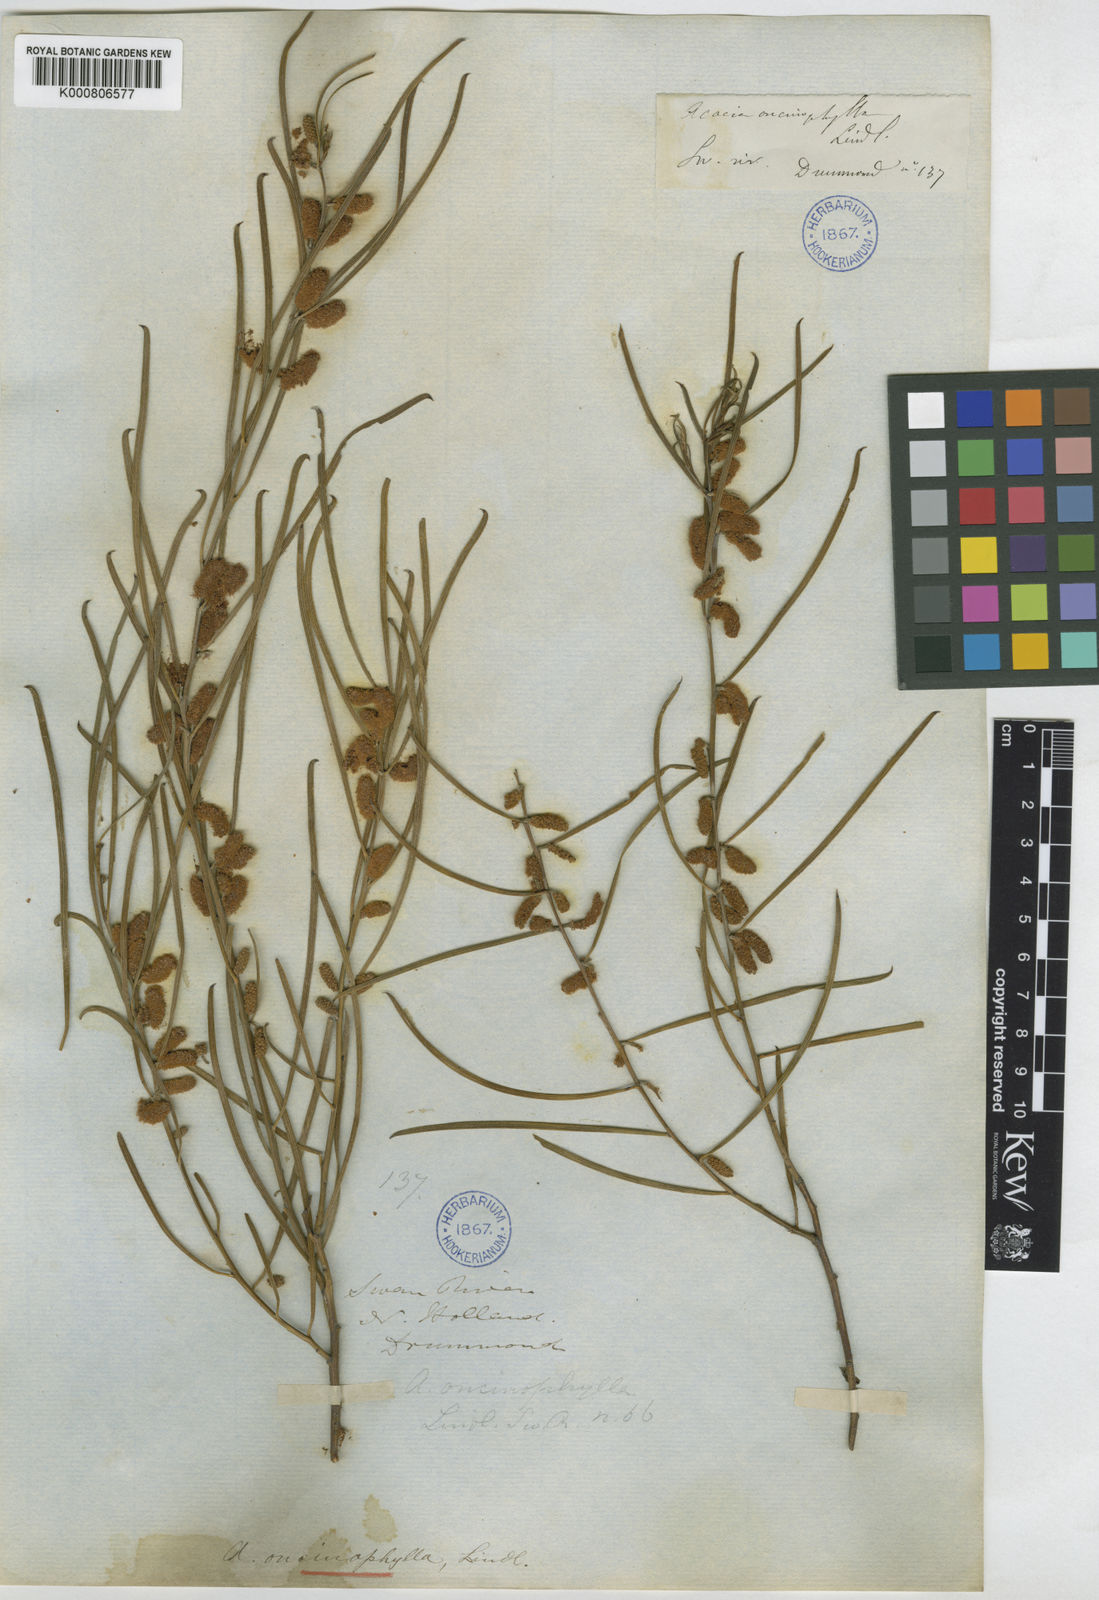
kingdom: Plantae
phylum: Tracheophyta
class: Magnoliopsida
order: Fabales
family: Fabaceae
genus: Acacia
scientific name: Acacia oncinophylla
